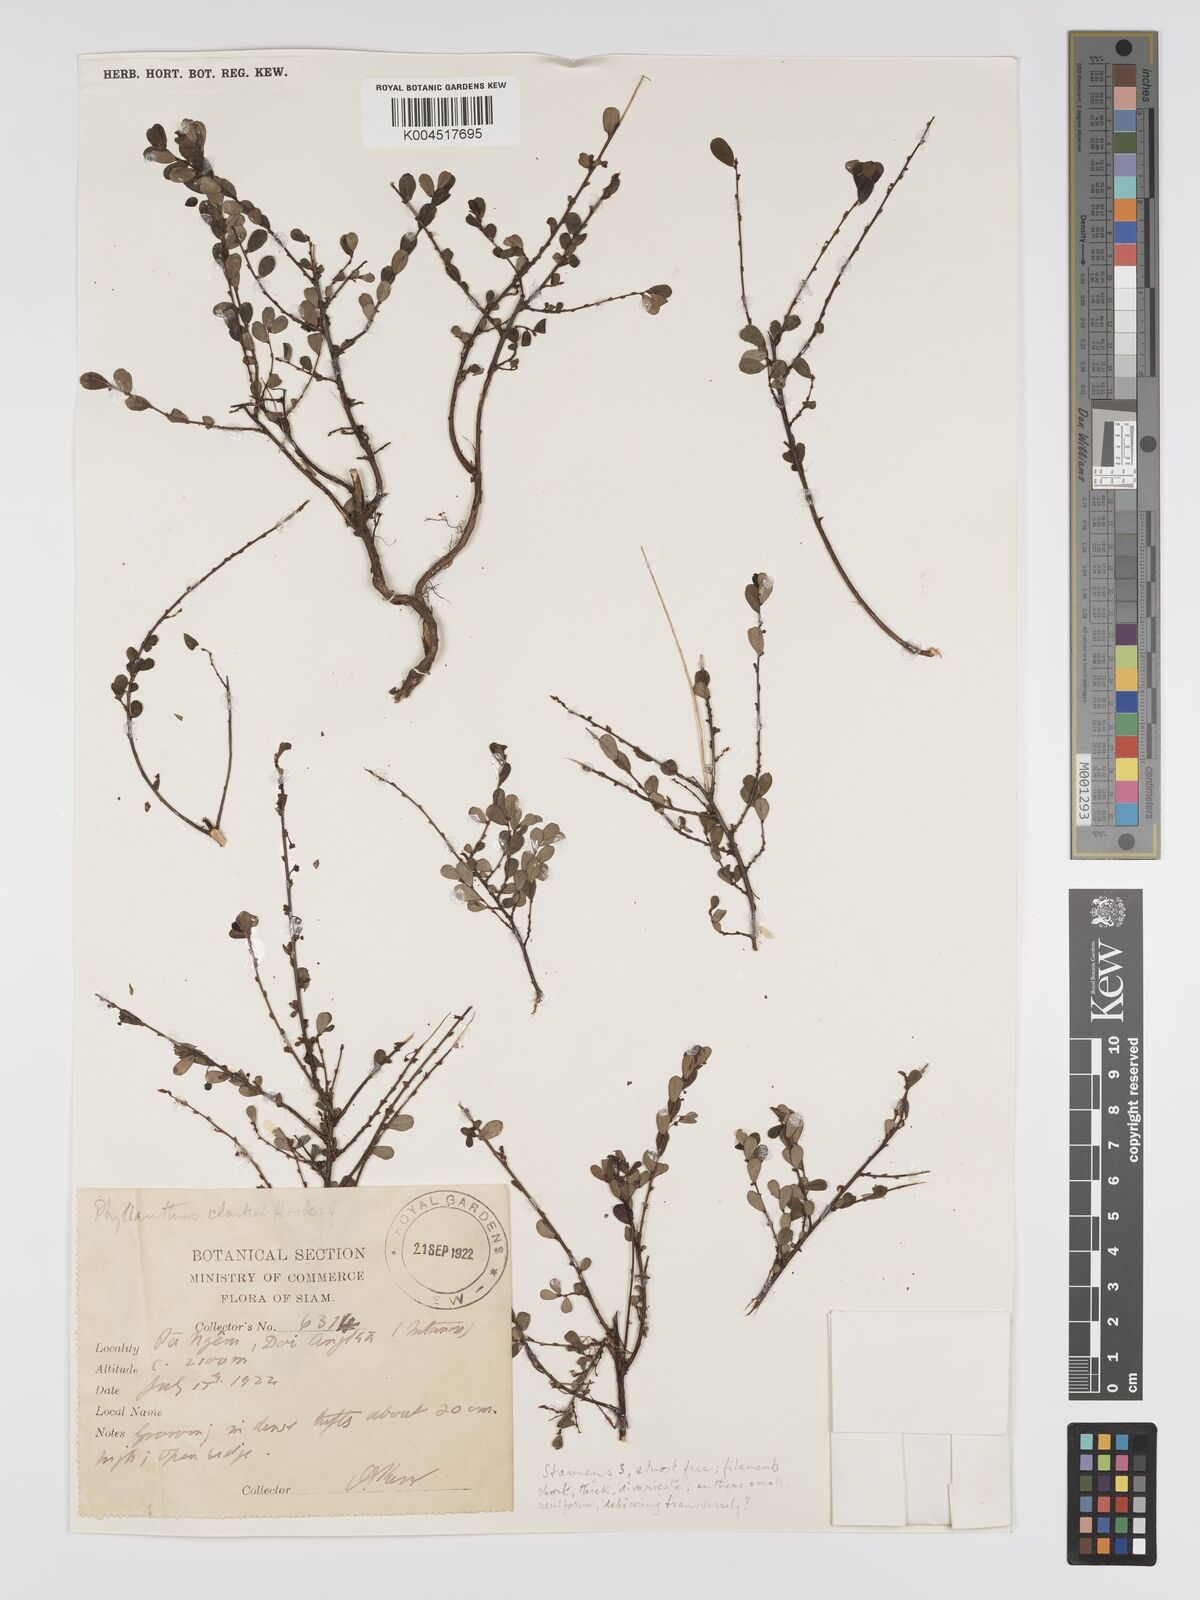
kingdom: Plantae
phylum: Tracheophyta
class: Magnoliopsida
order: Malpighiales
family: Phyllanthaceae
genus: Phyllanthus
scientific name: Phyllanthus clarkei
